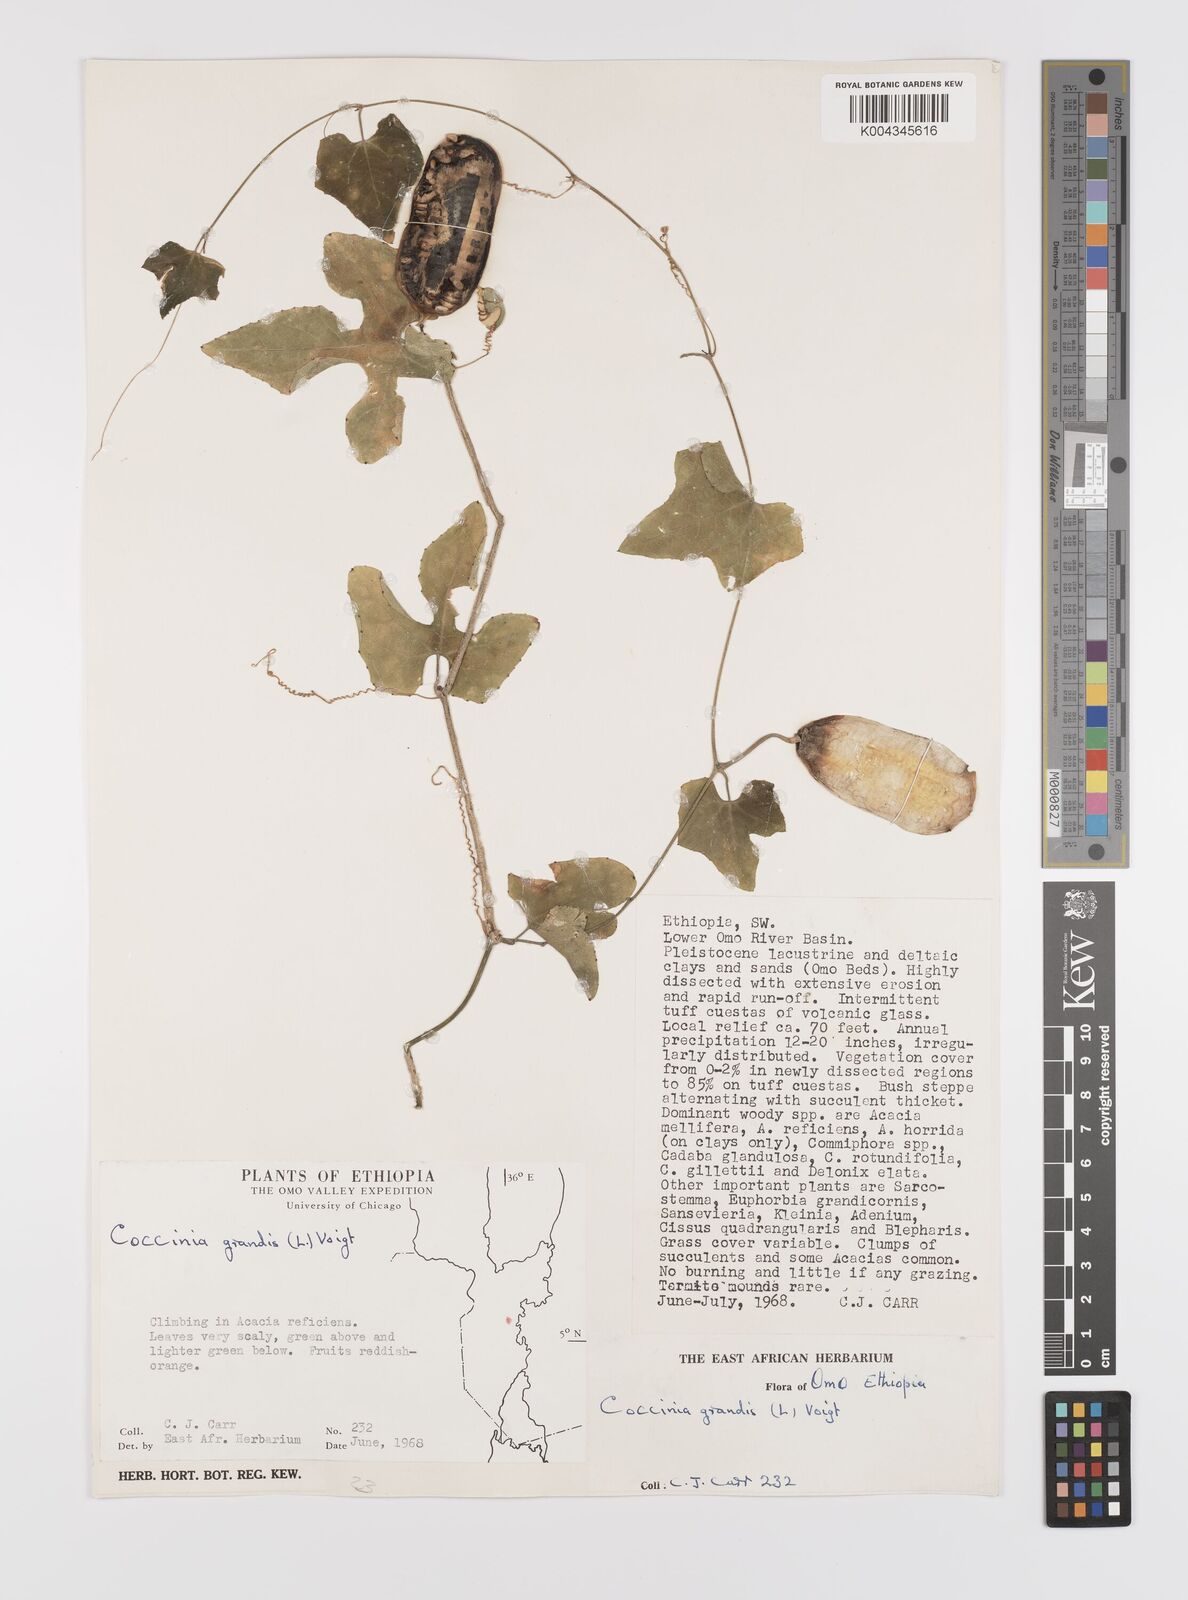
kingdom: Plantae
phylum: Tracheophyta
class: Magnoliopsida
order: Cucurbitales
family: Cucurbitaceae
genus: Coccinia
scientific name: Coccinia grandis
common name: Ivy gourd
